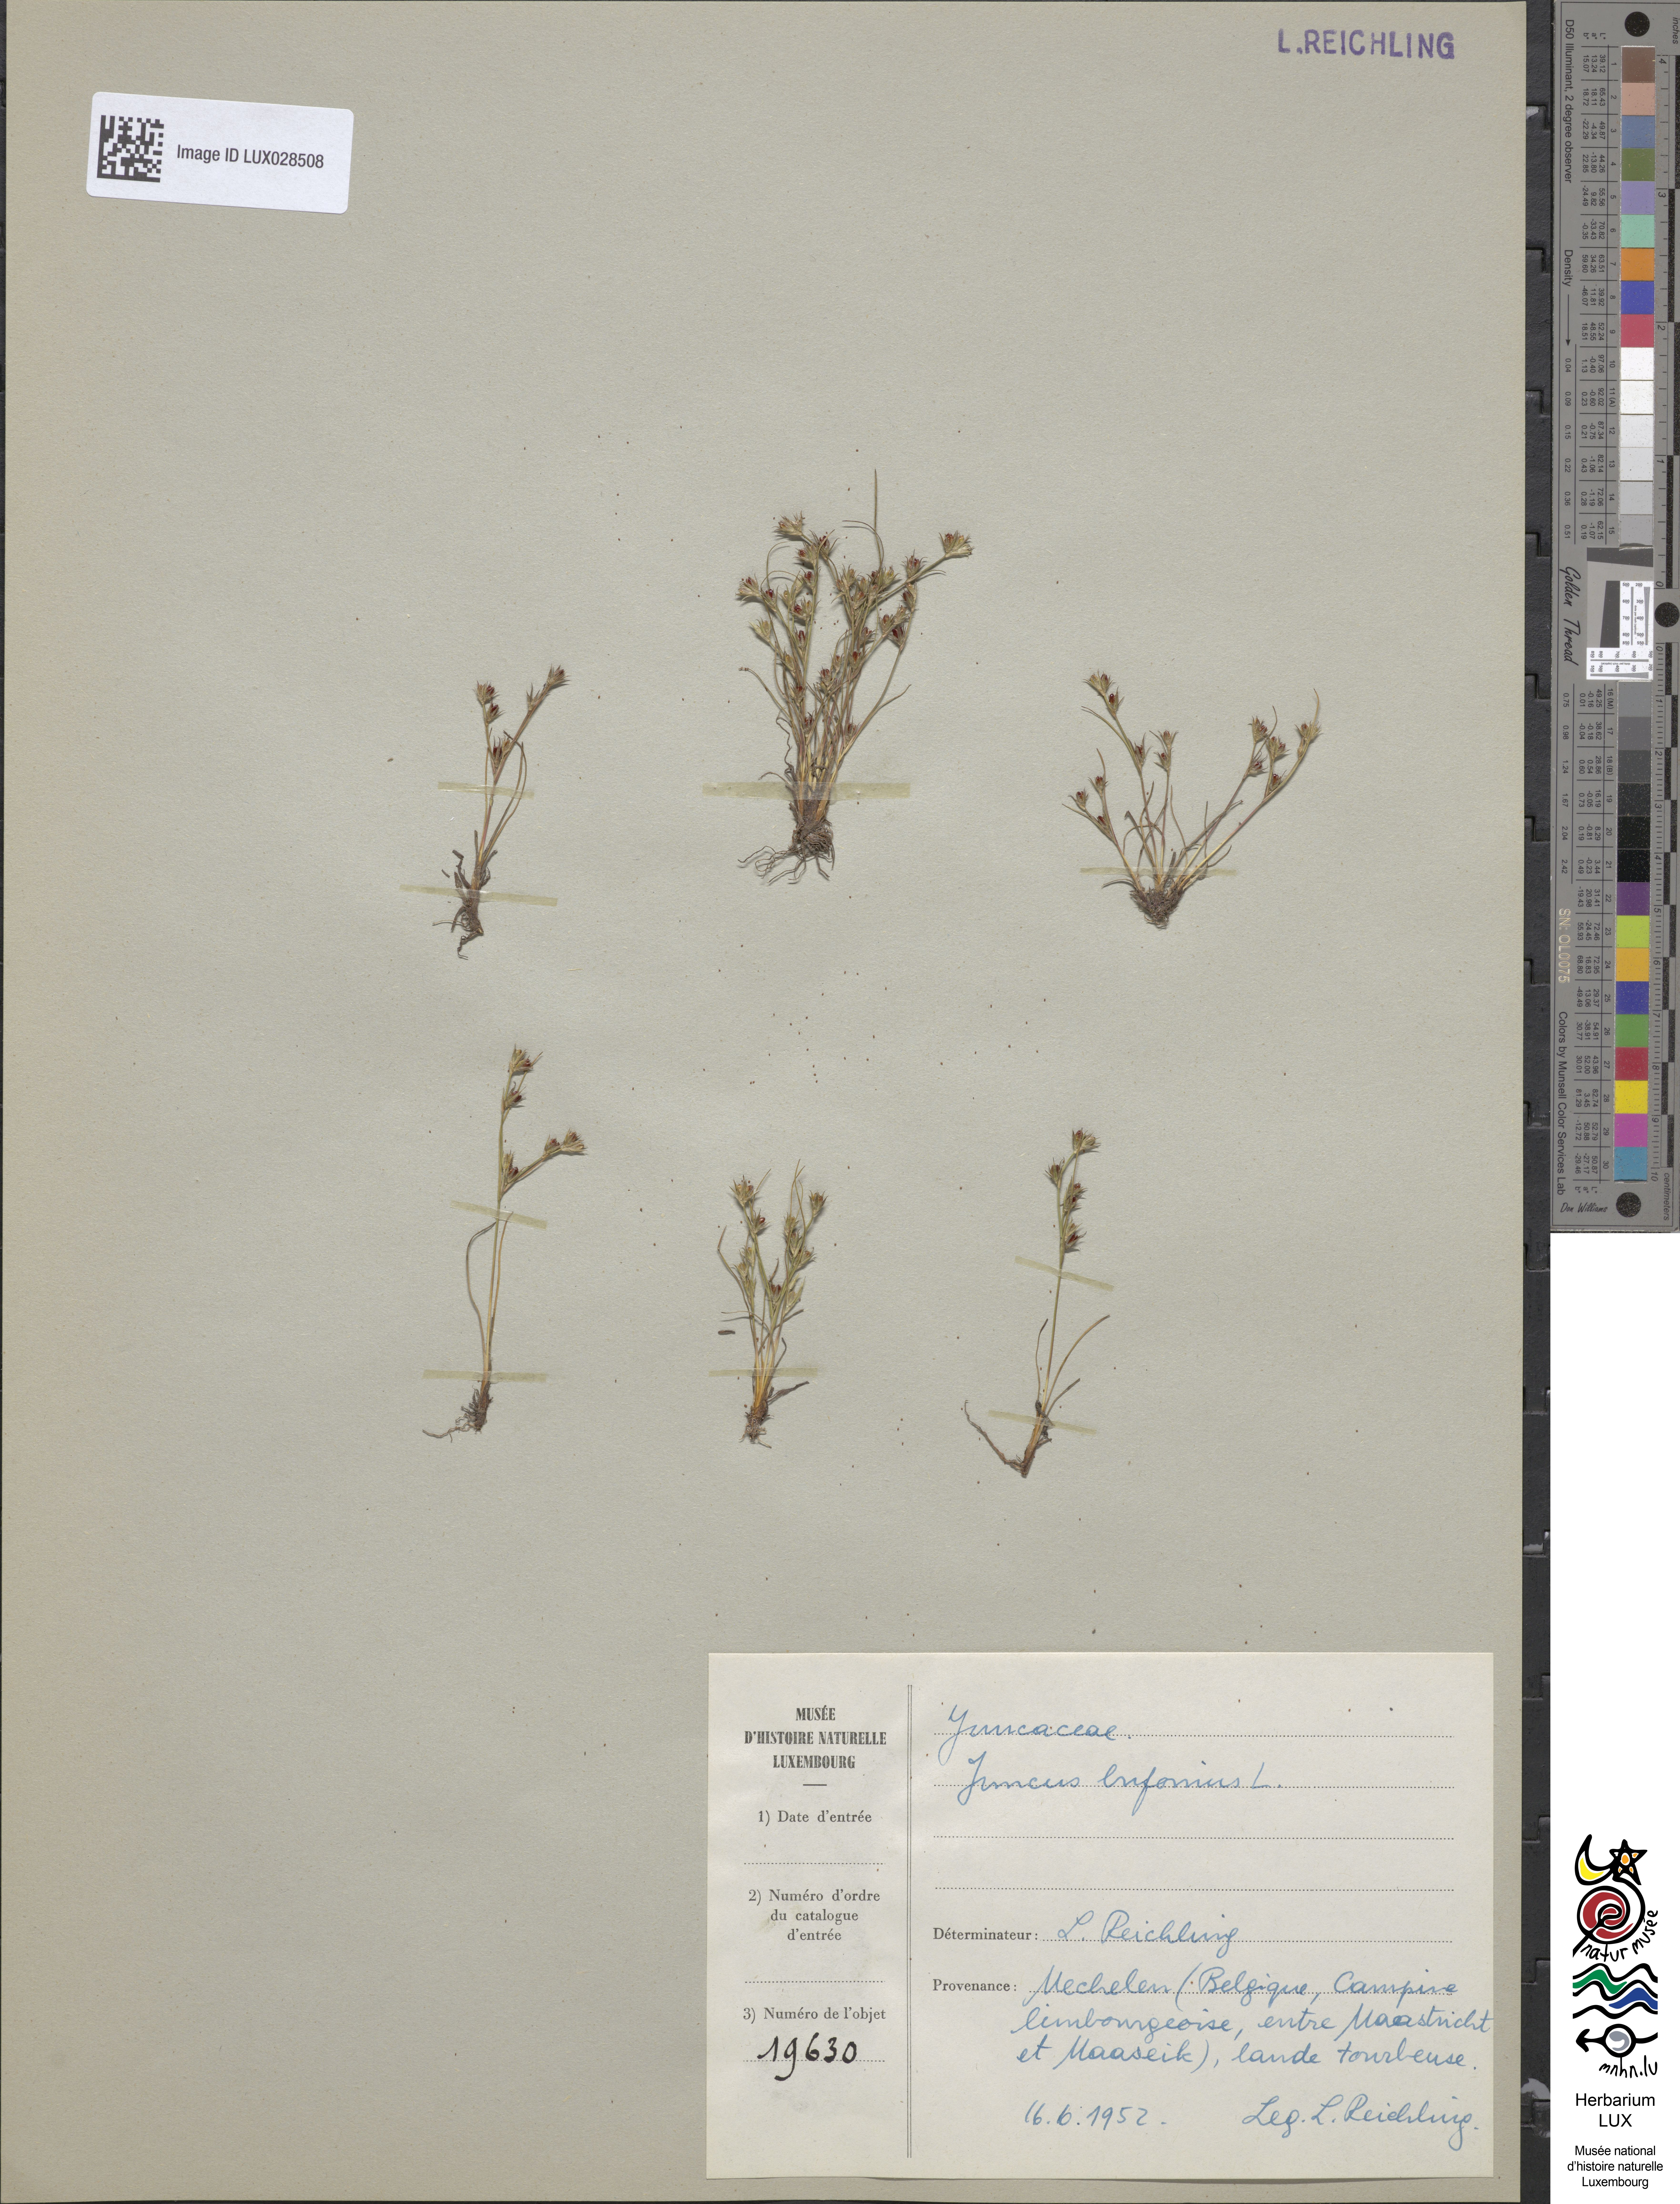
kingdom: Plantae
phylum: Tracheophyta
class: Liliopsida
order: Poales
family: Juncaceae
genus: Juncus
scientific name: Juncus bufonius
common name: Toad rush
